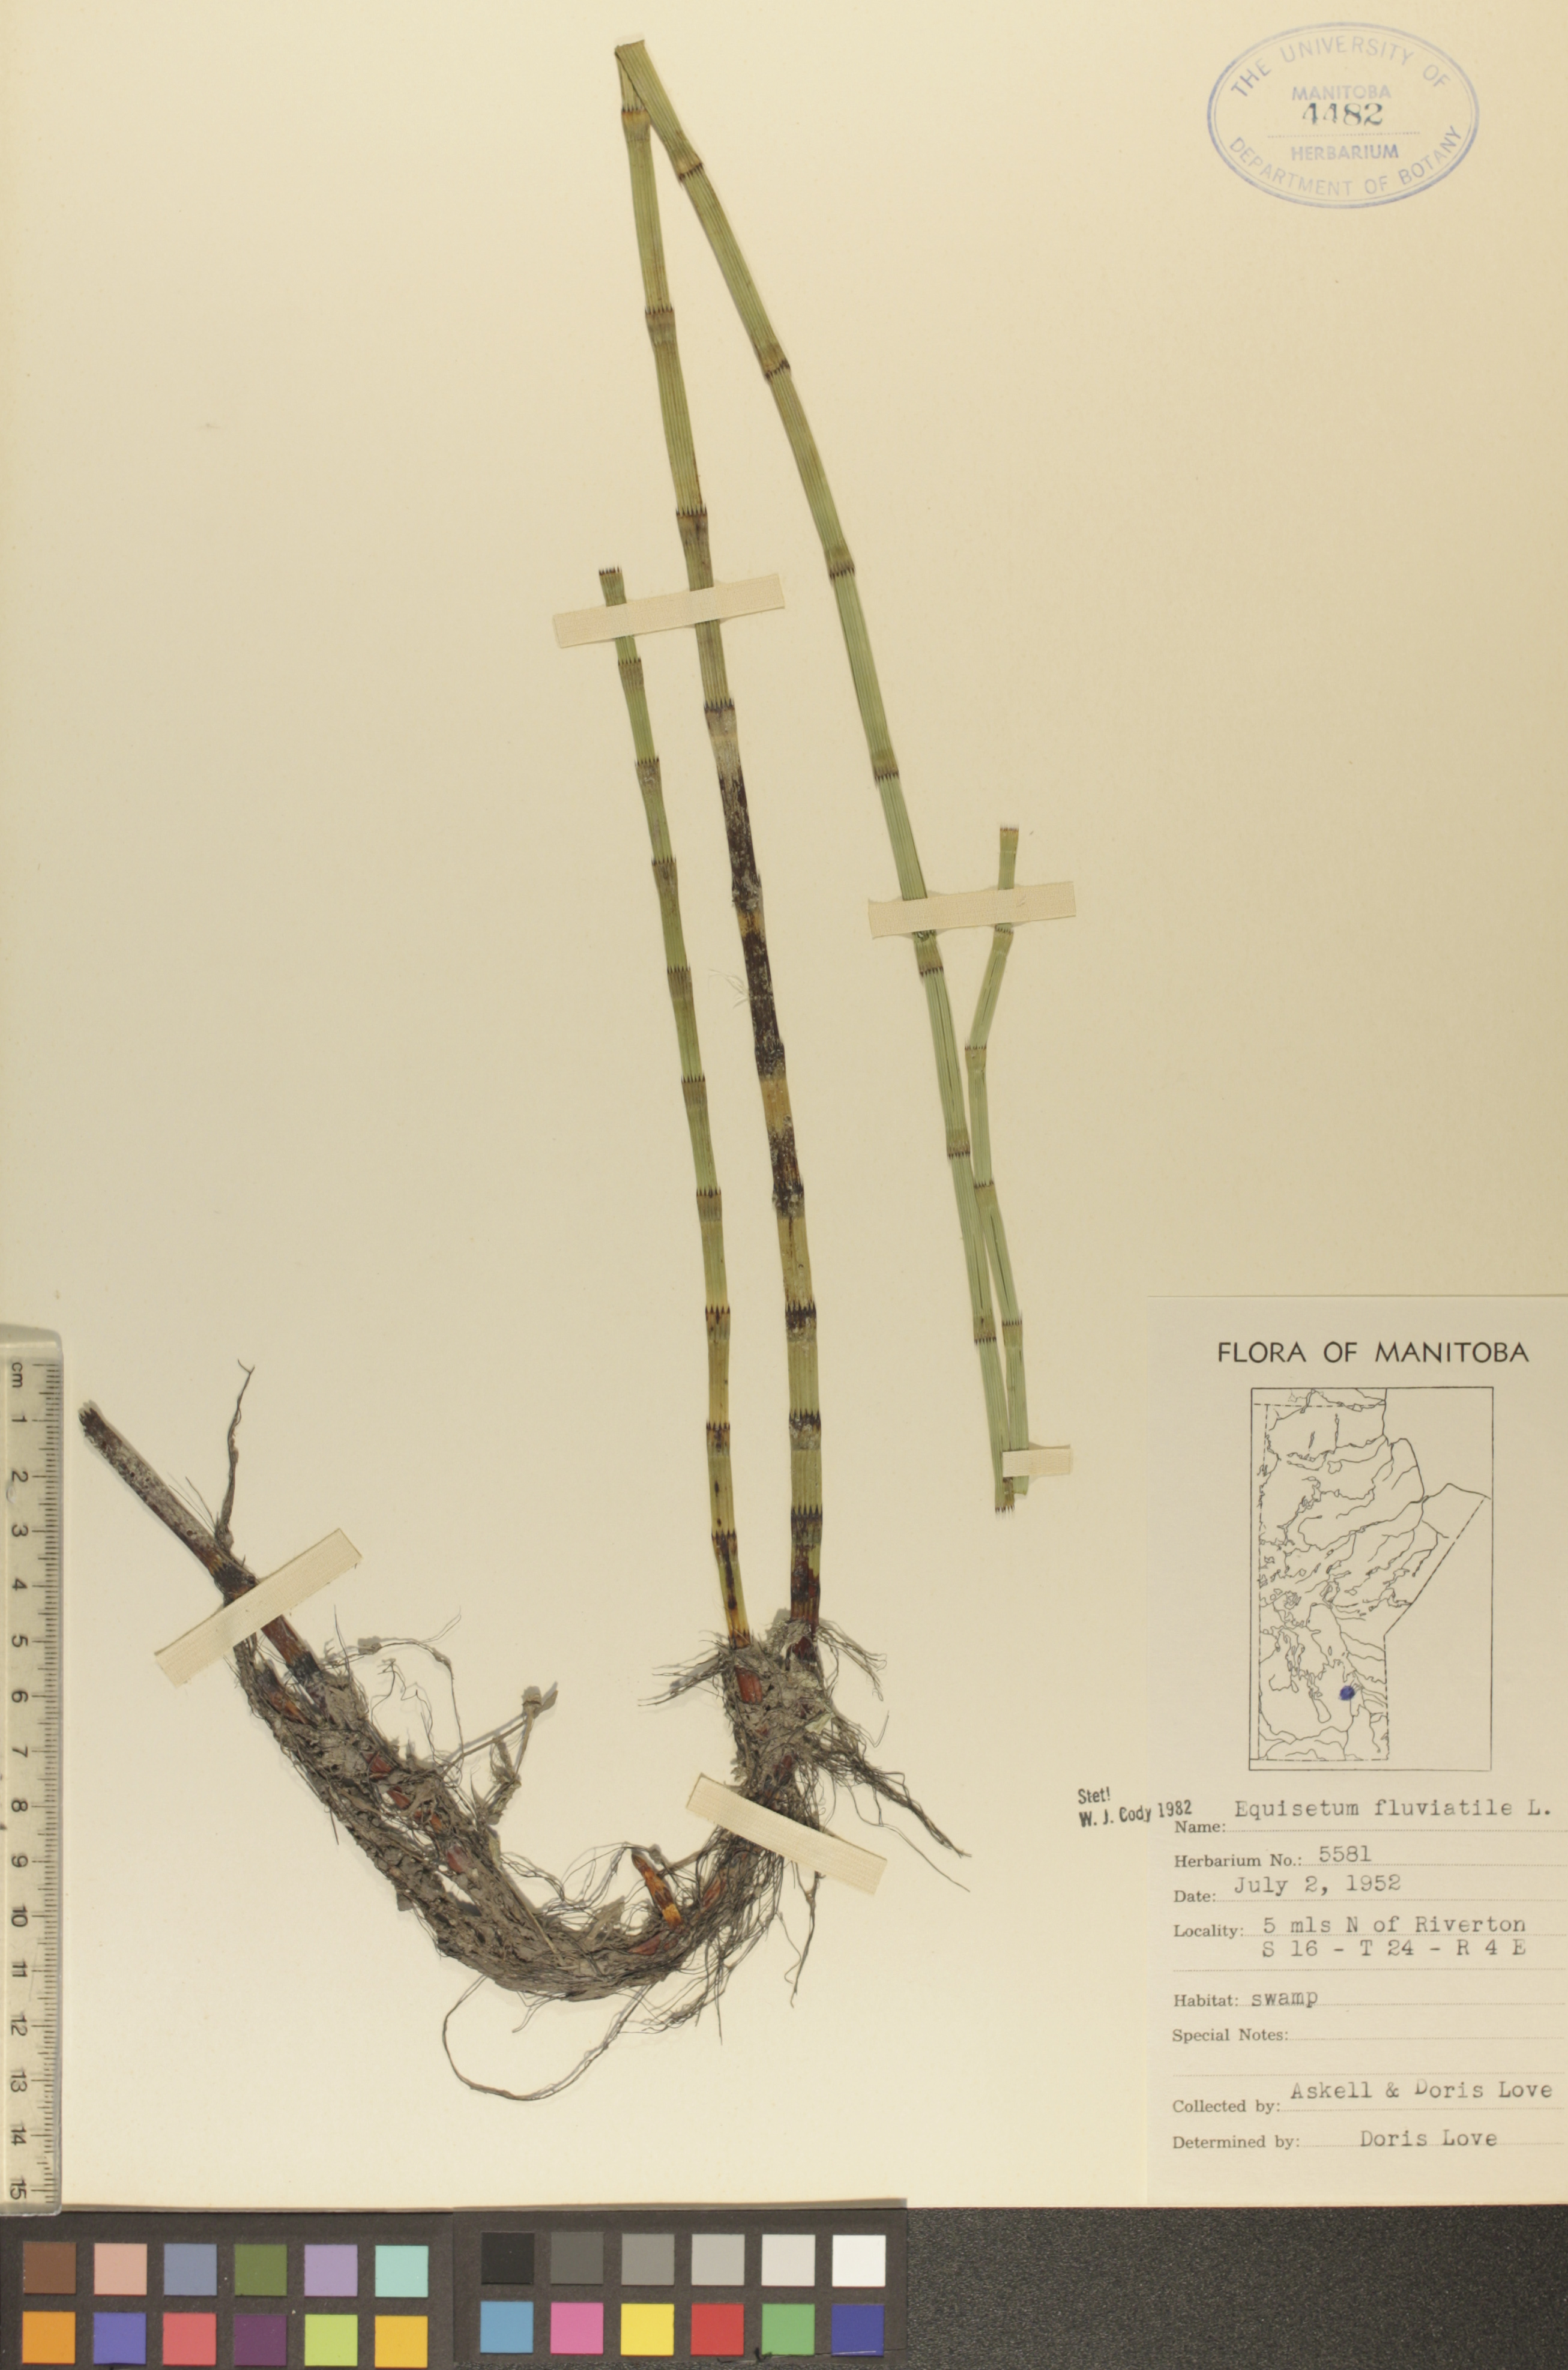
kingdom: Plantae
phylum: Tracheophyta
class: Polypodiopsida
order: Equisetales
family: Equisetaceae
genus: Equisetum
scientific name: Equisetum fluviatile
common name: Water horsetail
